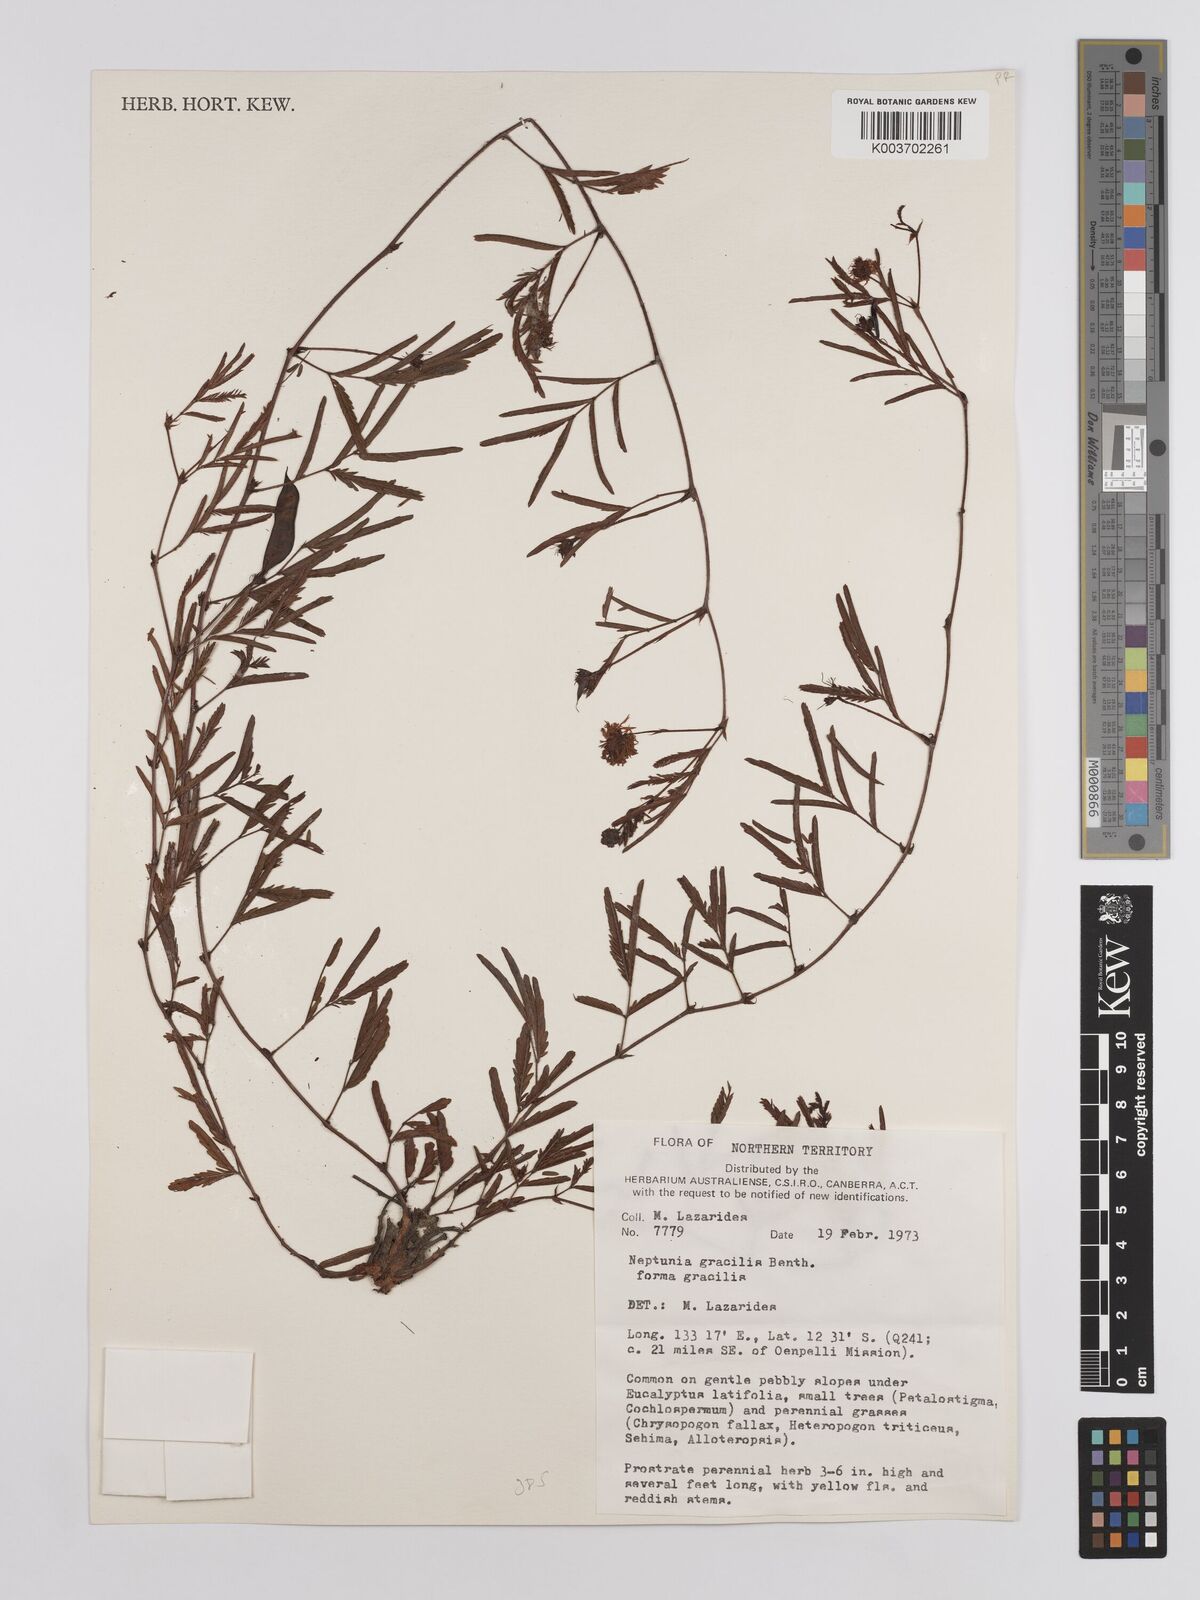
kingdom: Plantae
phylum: Tracheophyta
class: Magnoliopsida
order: Fabales
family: Fabaceae
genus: Neptunia
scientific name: Neptunia gracilis
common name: Sensitive-plant
